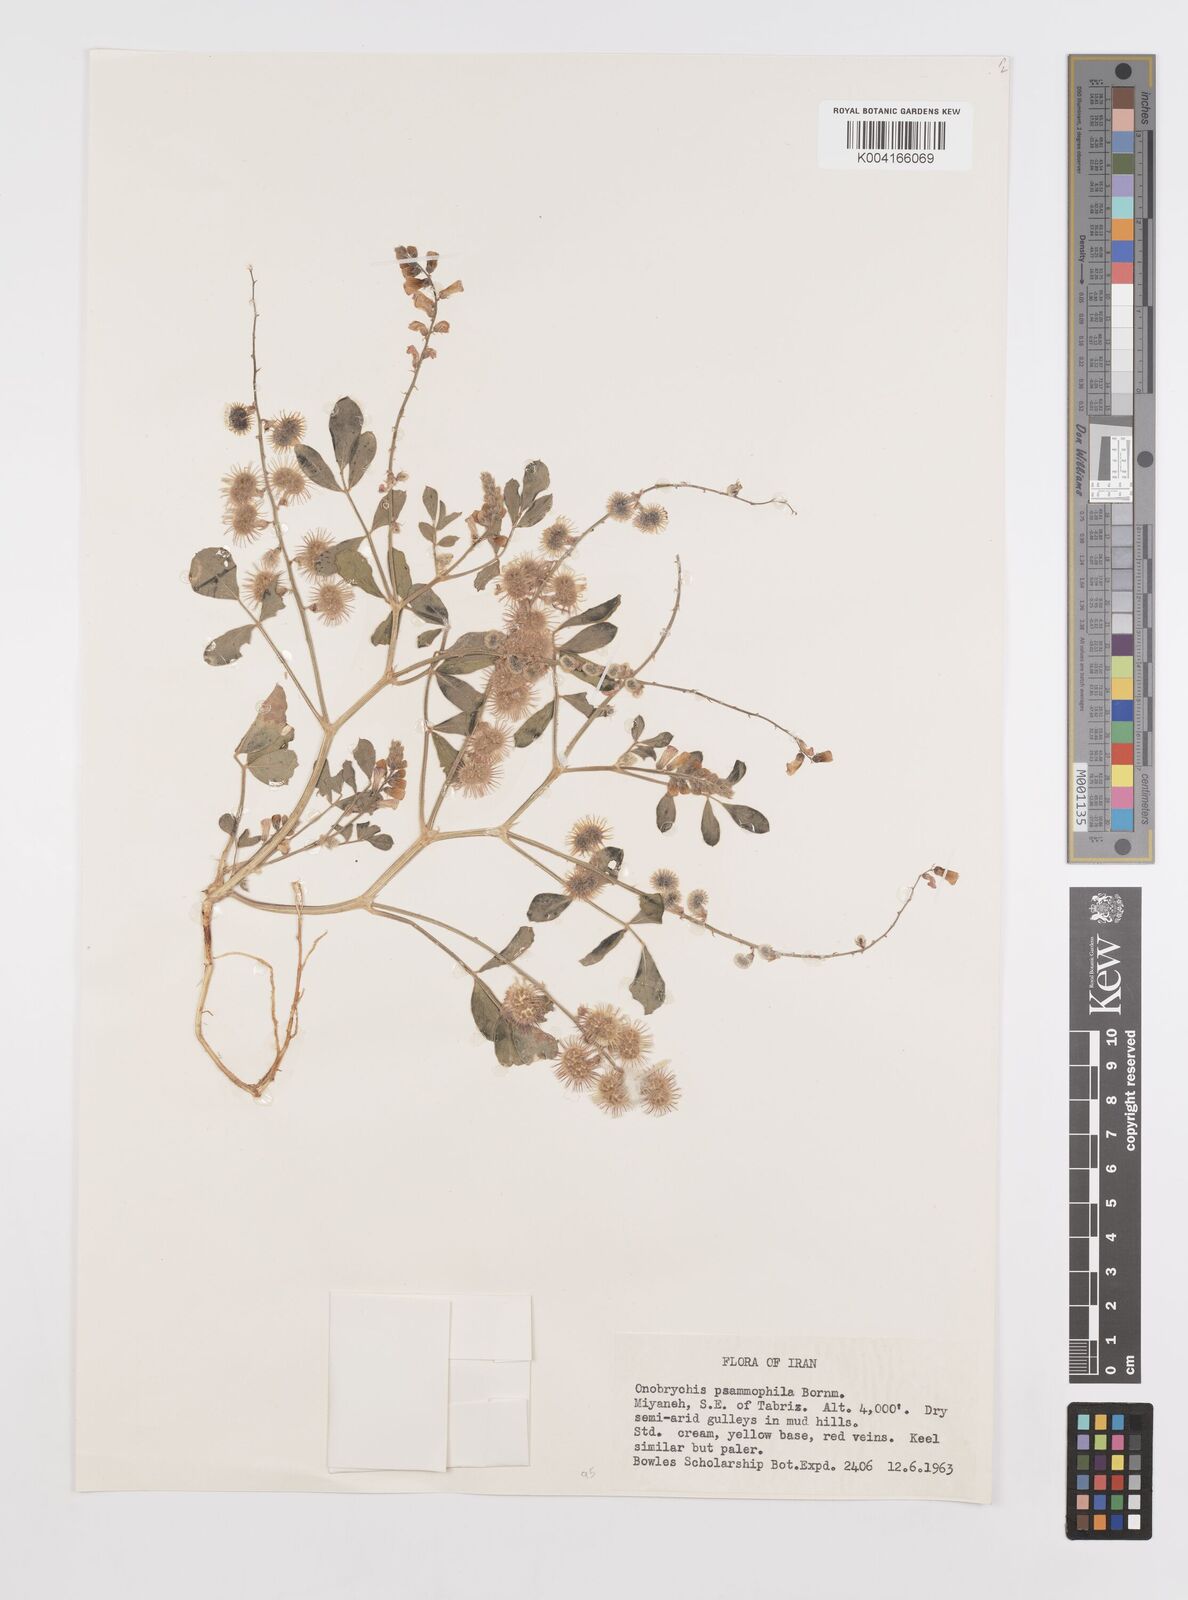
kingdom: Plantae
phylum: Tracheophyta
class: Magnoliopsida
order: Fabales
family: Fabaceae
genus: Onobrychis
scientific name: Onobrychis aucheri
